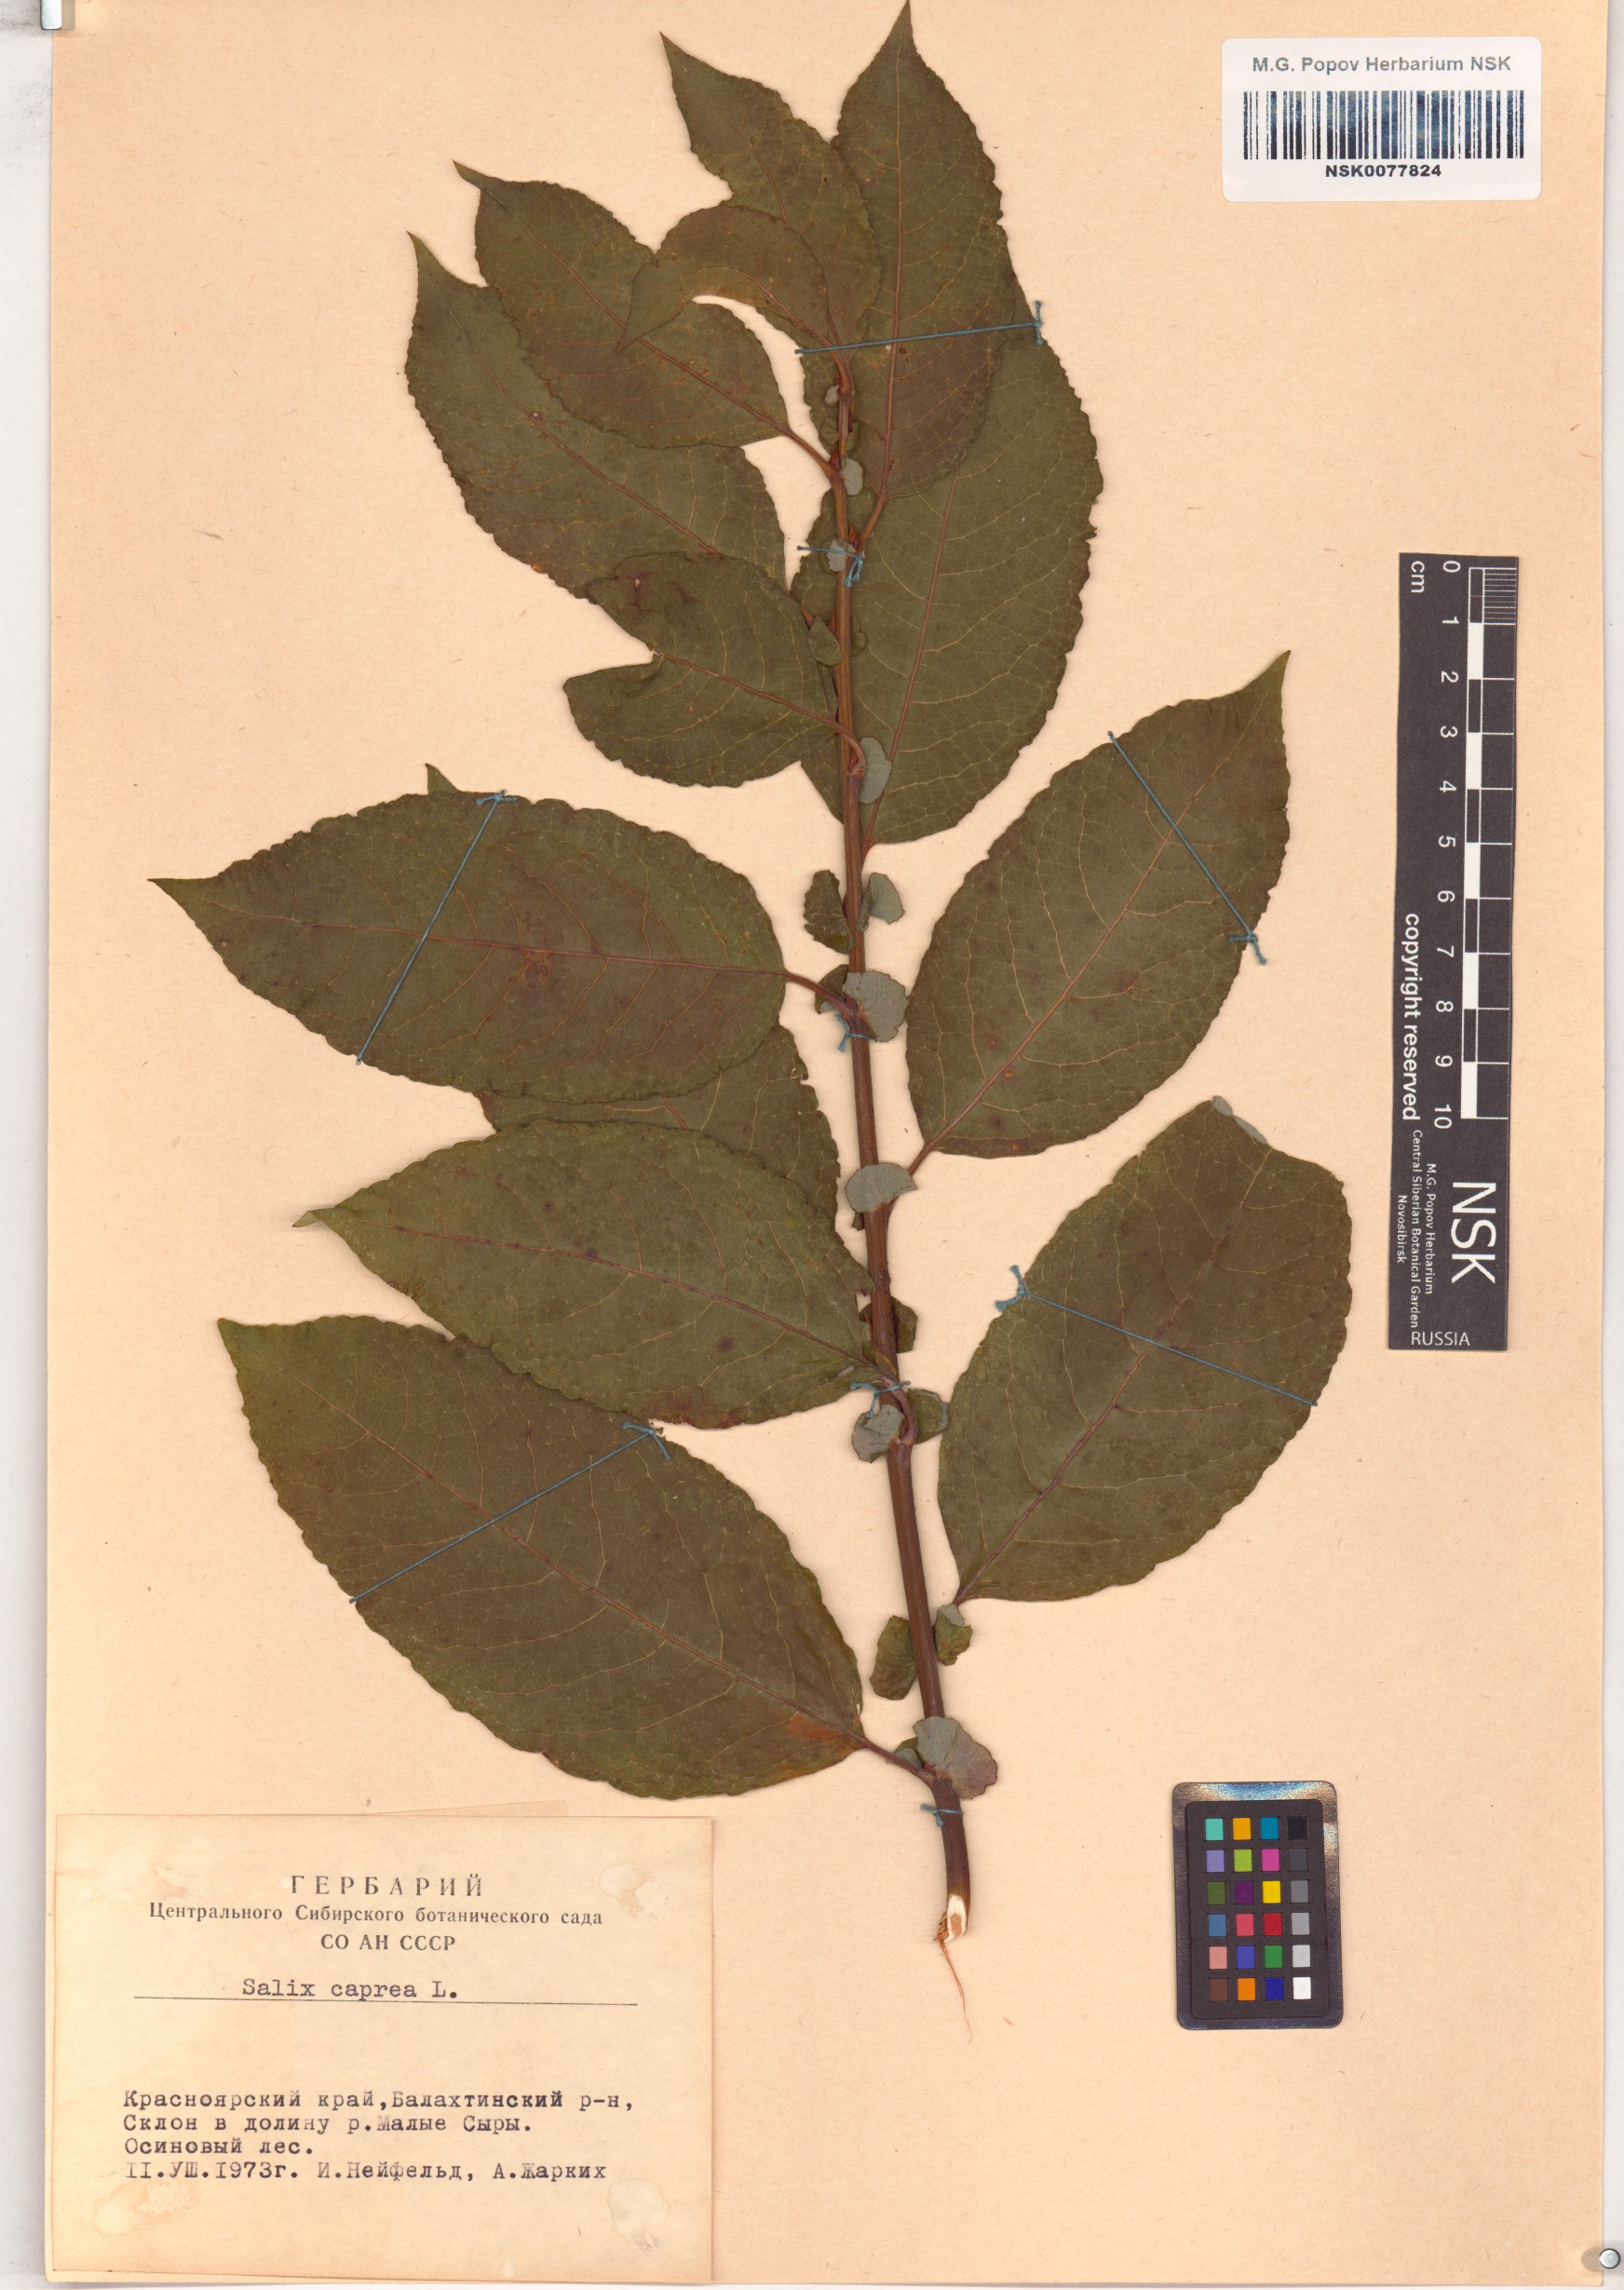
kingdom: Plantae
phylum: Tracheophyta
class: Magnoliopsida
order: Malpighiales
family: Salicaceae
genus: Salix
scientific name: Salix caprea
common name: Goat willow
